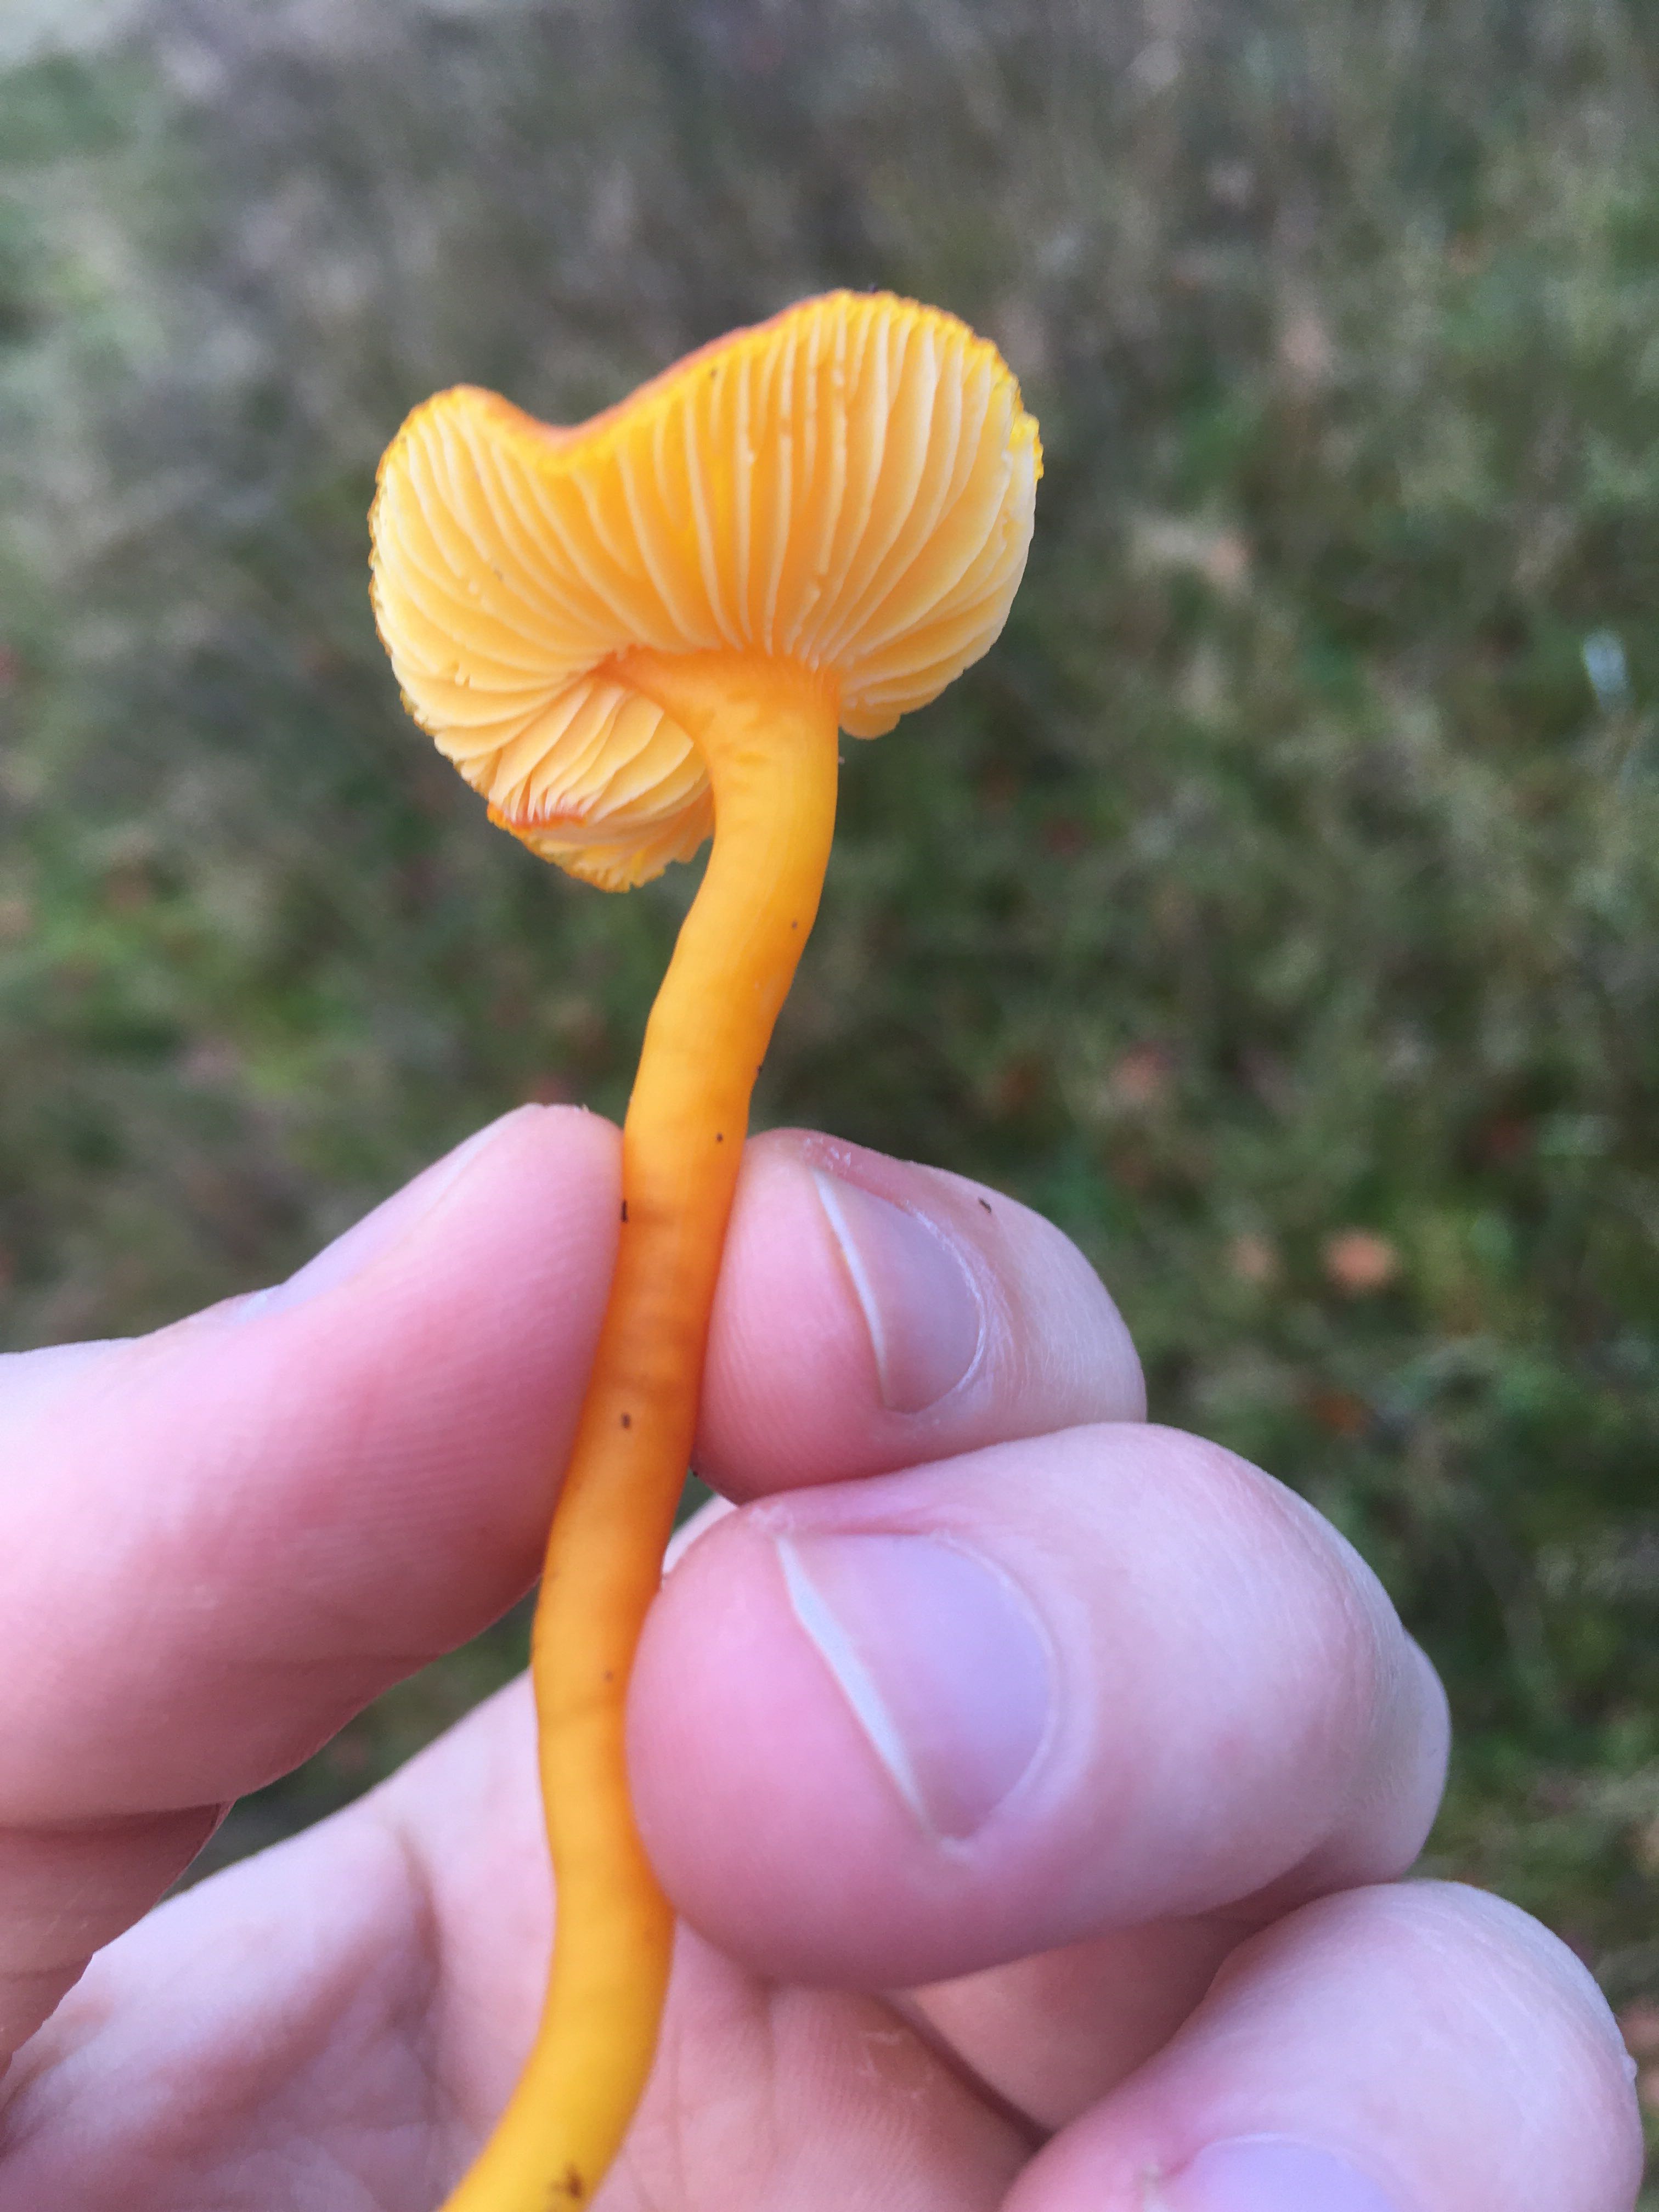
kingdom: Fungi
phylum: Basidiomycota
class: Agaricomycetes
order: Agaricales
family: Hygrophoraceae
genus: Hygrocybe
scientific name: Hygrocybe miniata
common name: mønje-vokshat
